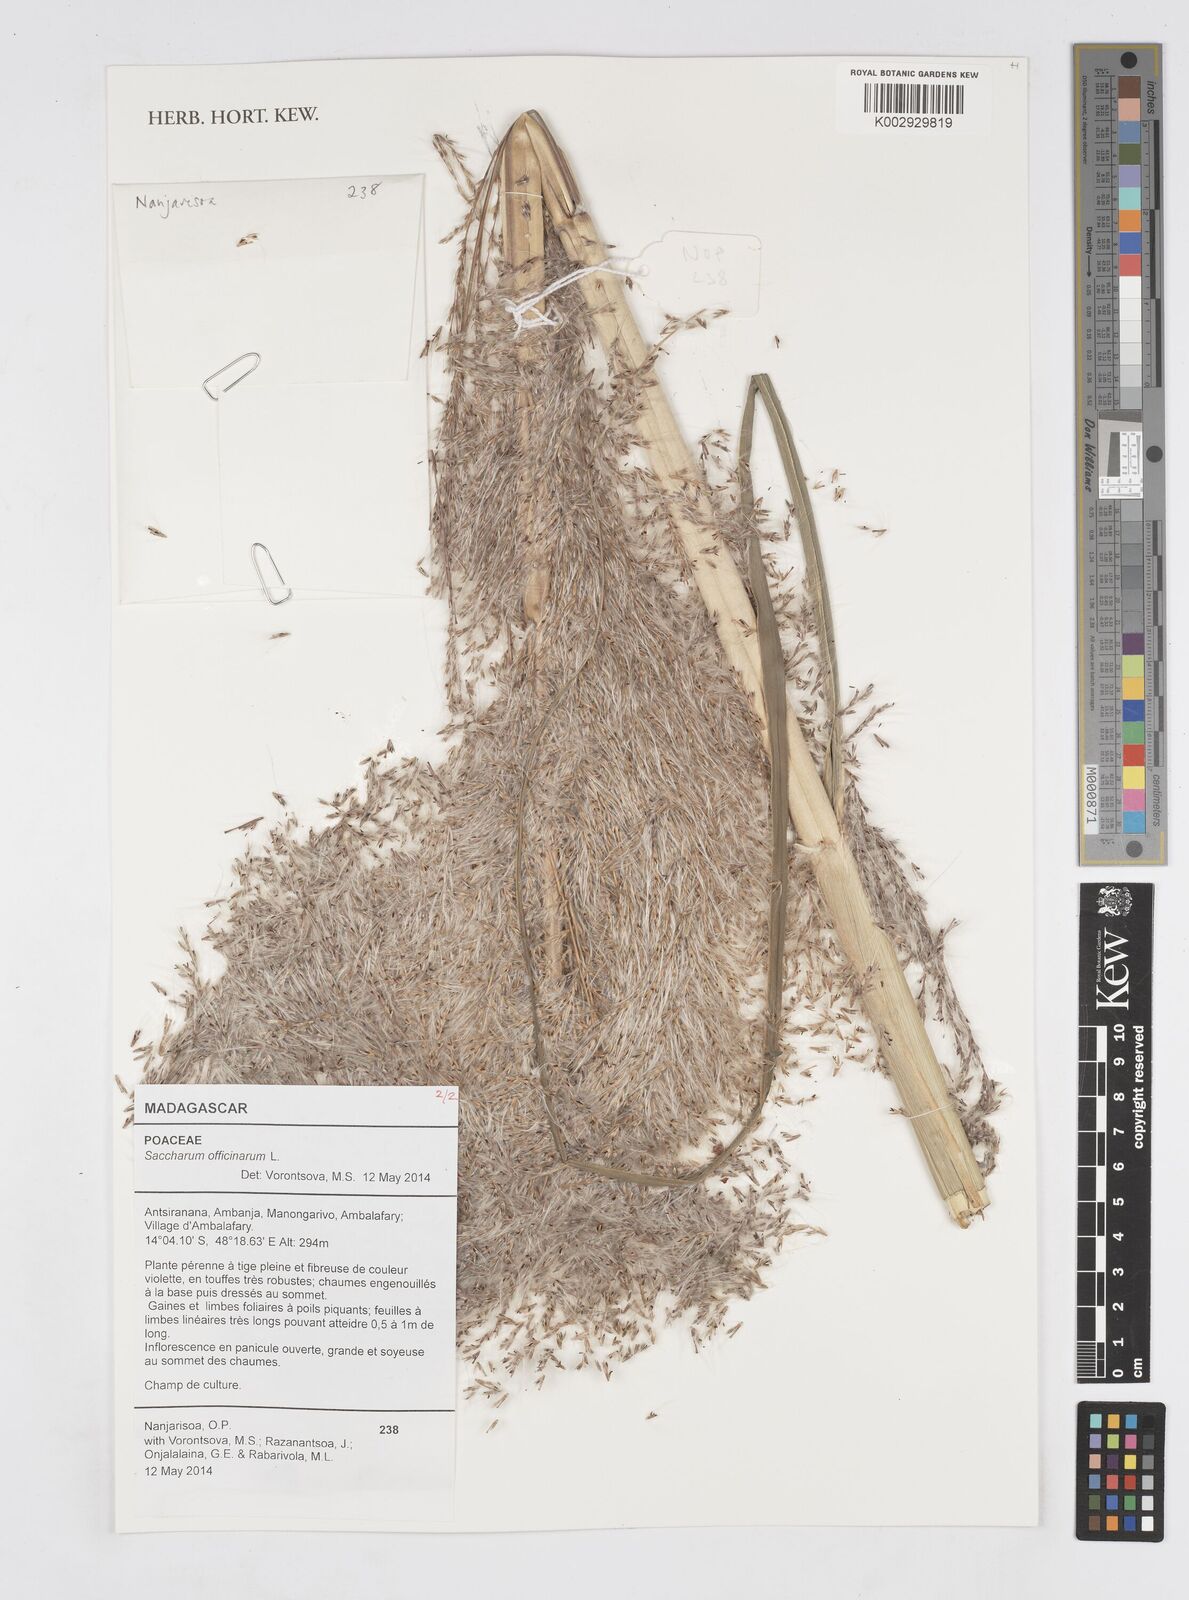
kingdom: Plantae
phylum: Tracheophyta
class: Liliopsida
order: Poales
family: Poaceae
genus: Saccharum
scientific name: Saccharum officinarum
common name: Sugarcane
